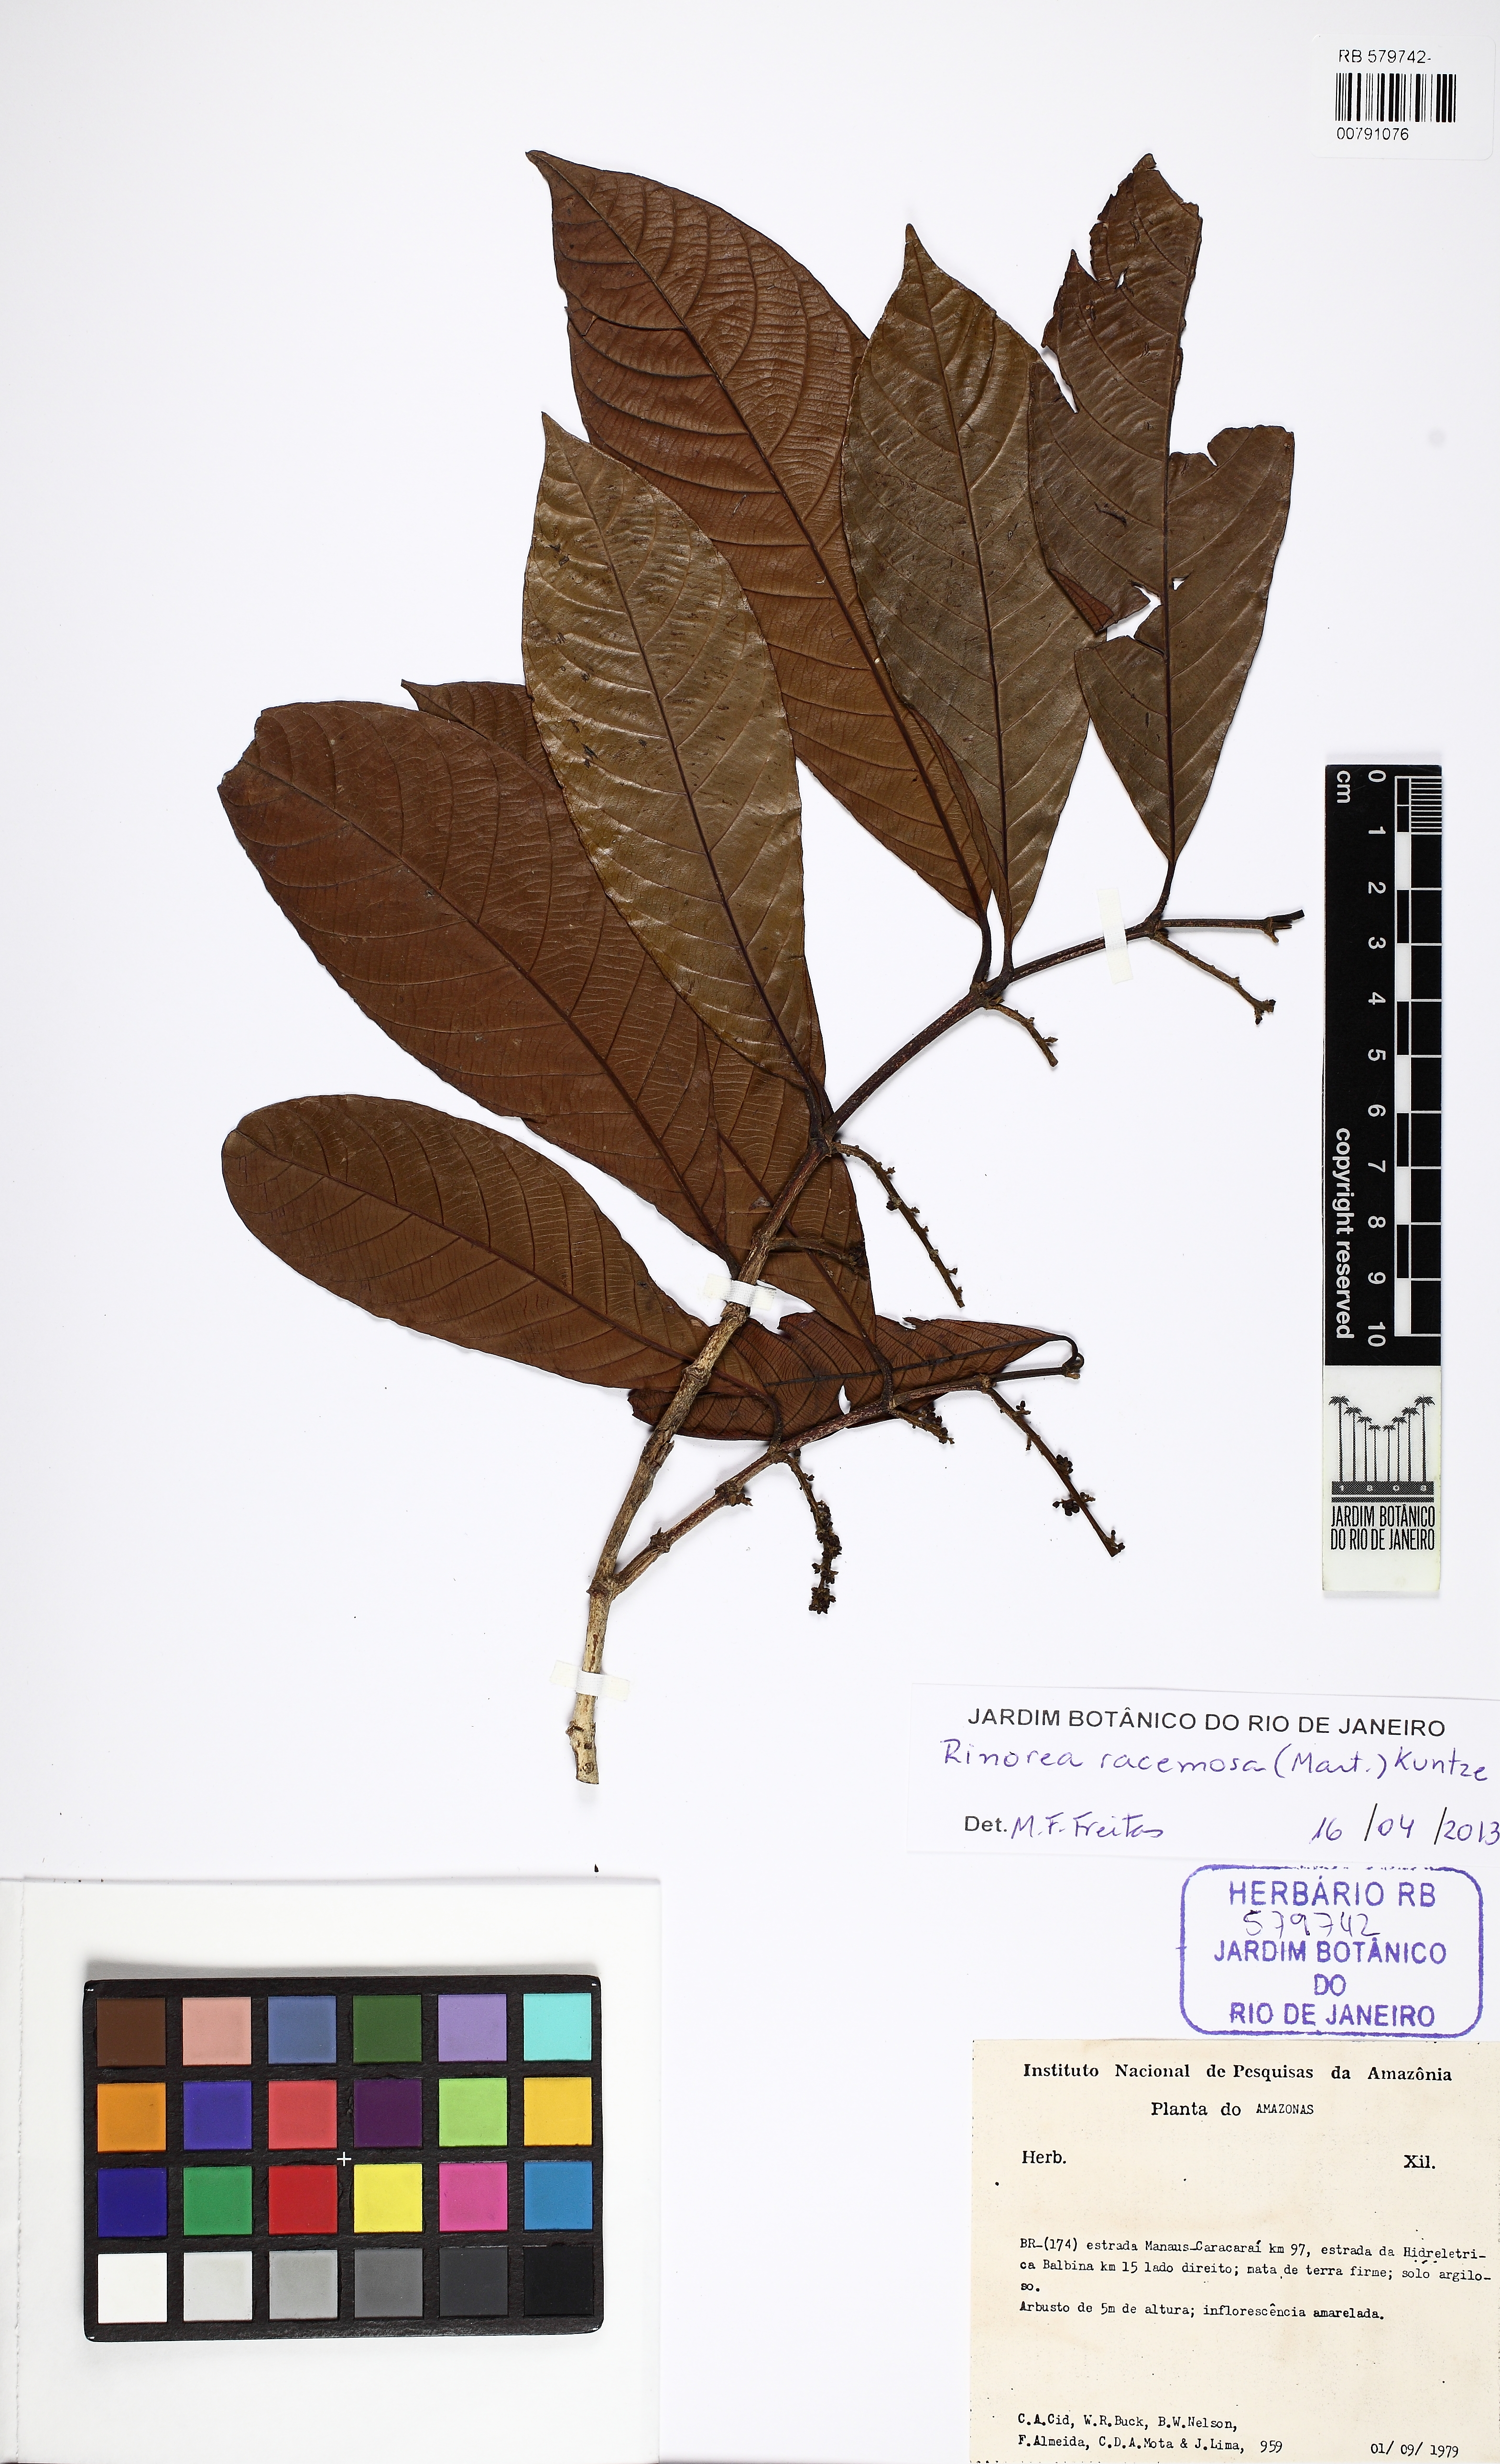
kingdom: Plantae
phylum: Tracheophyta
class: Magnoliopsida
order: Malpighiales
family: Violaceae
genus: Rinorea
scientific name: Rinorea racemosa
